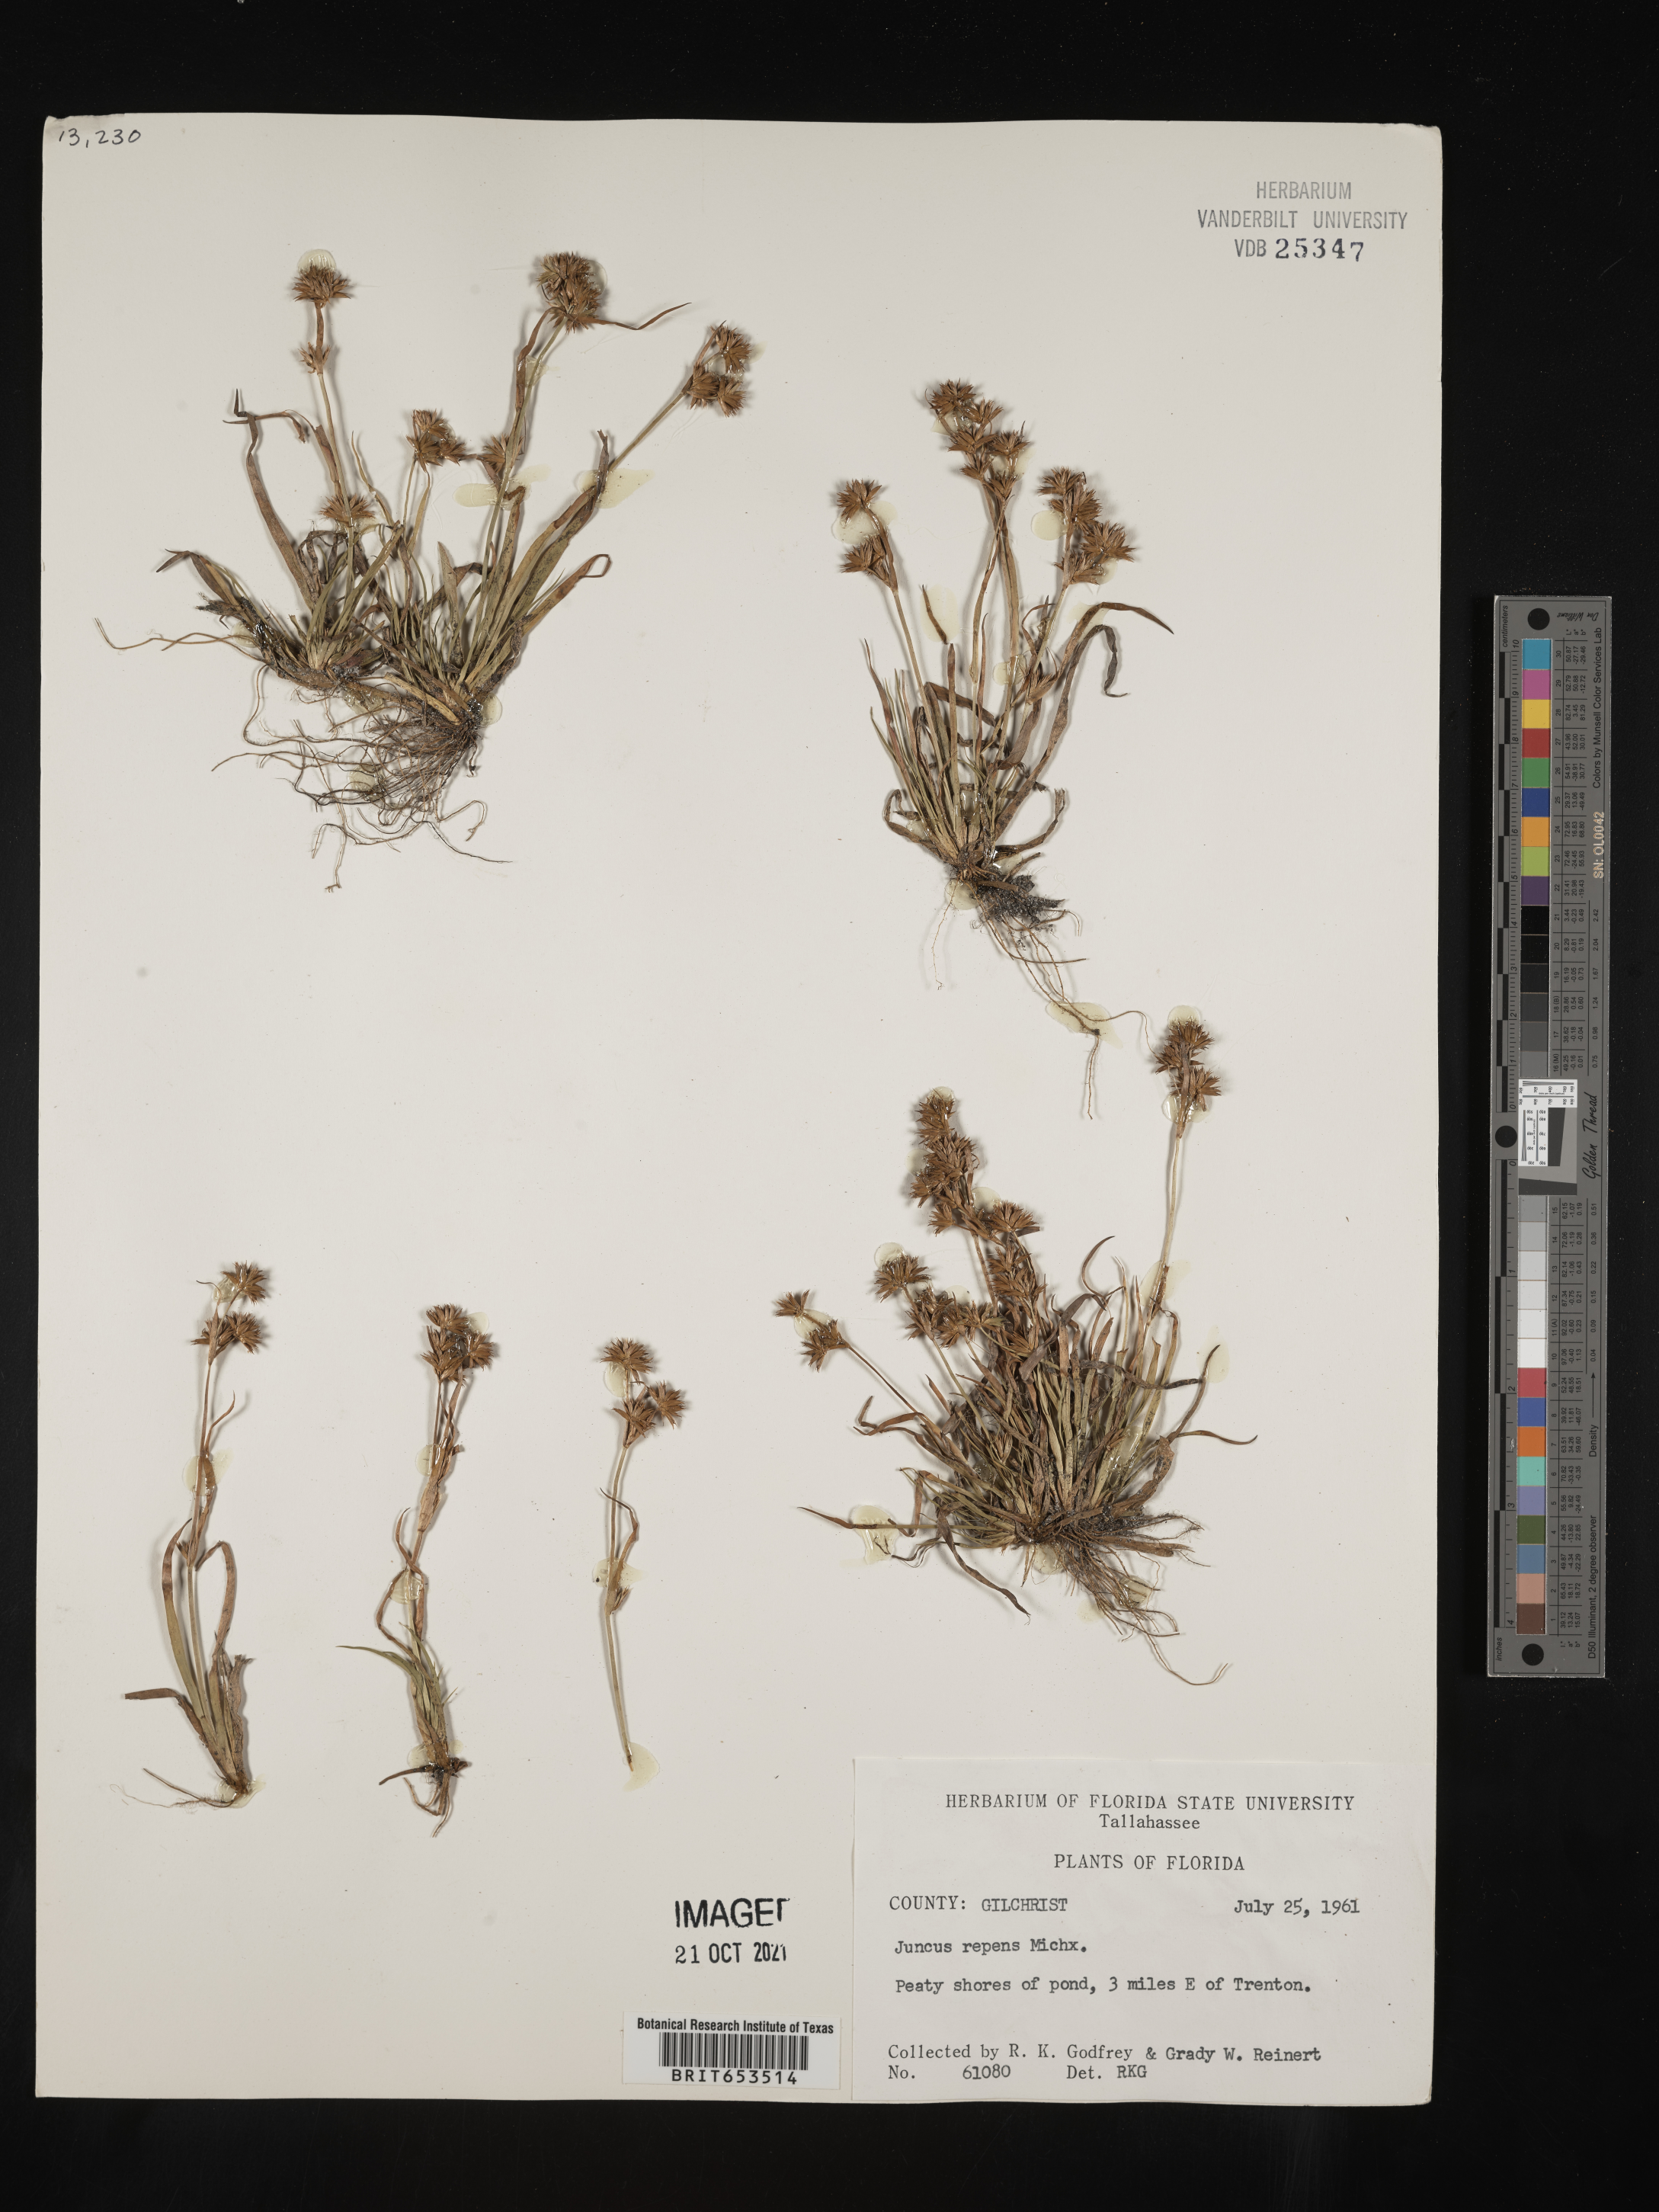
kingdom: Plantae
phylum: Tracheophyta
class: Liliopsida
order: Poales
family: Juncaceae
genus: Juncus
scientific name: Juncus repens
